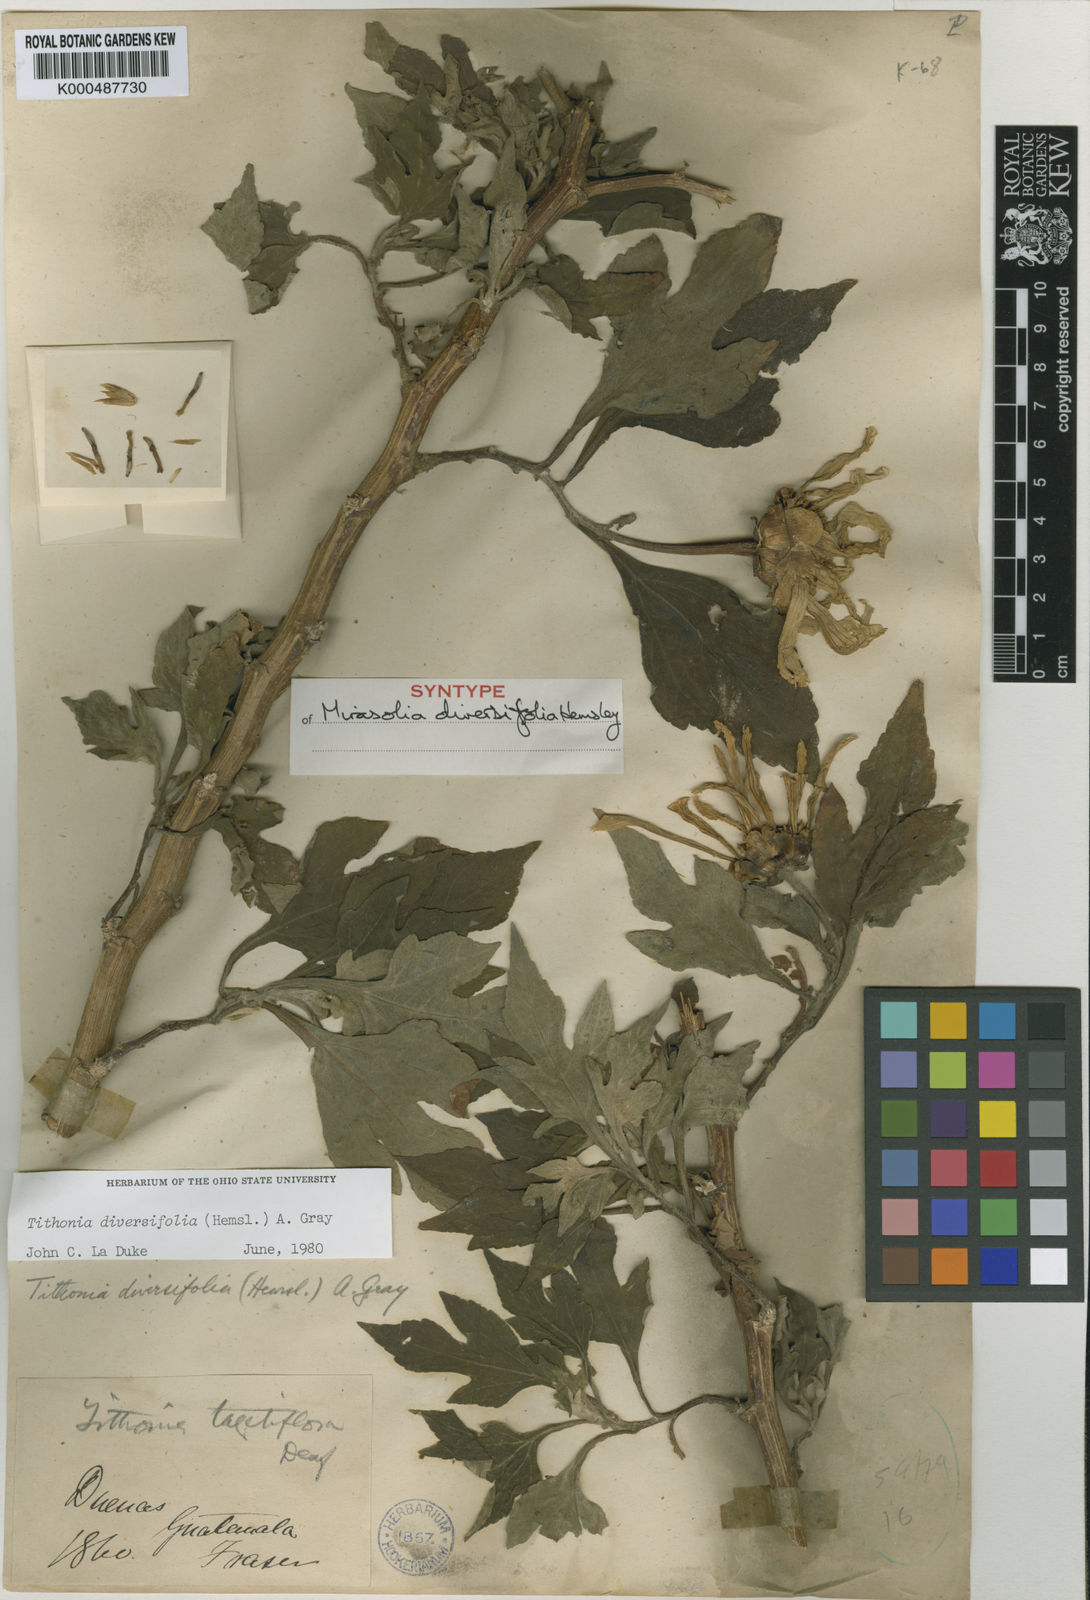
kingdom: Plantae
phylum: Tracheophyta
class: Magnoliopsida
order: Asterales
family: Asteraceae
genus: Tithonia
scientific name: Tithonia diversifolia
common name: Tree marigold
